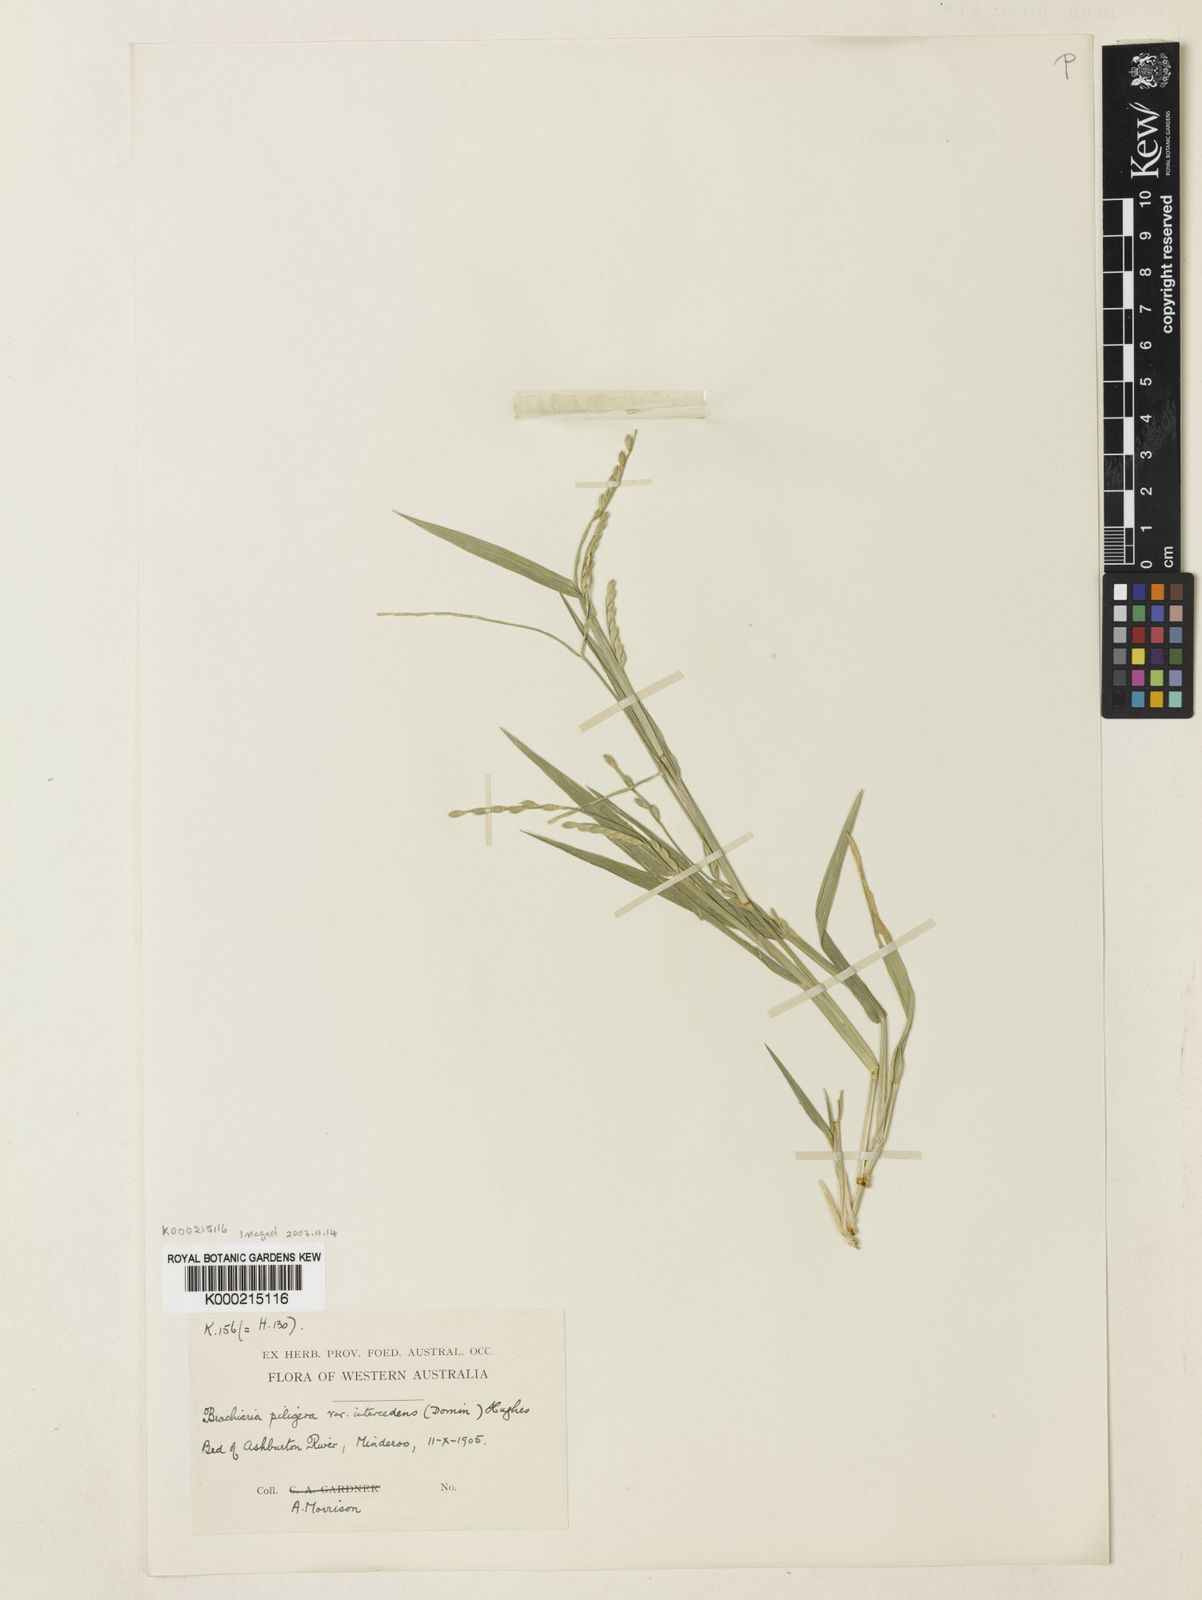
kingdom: Plantae
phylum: Tracheophyta
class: Liliopsida
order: Poales
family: Poaceae
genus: Urochloa
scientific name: Urochloa piligera
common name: Wattle signalgrass
